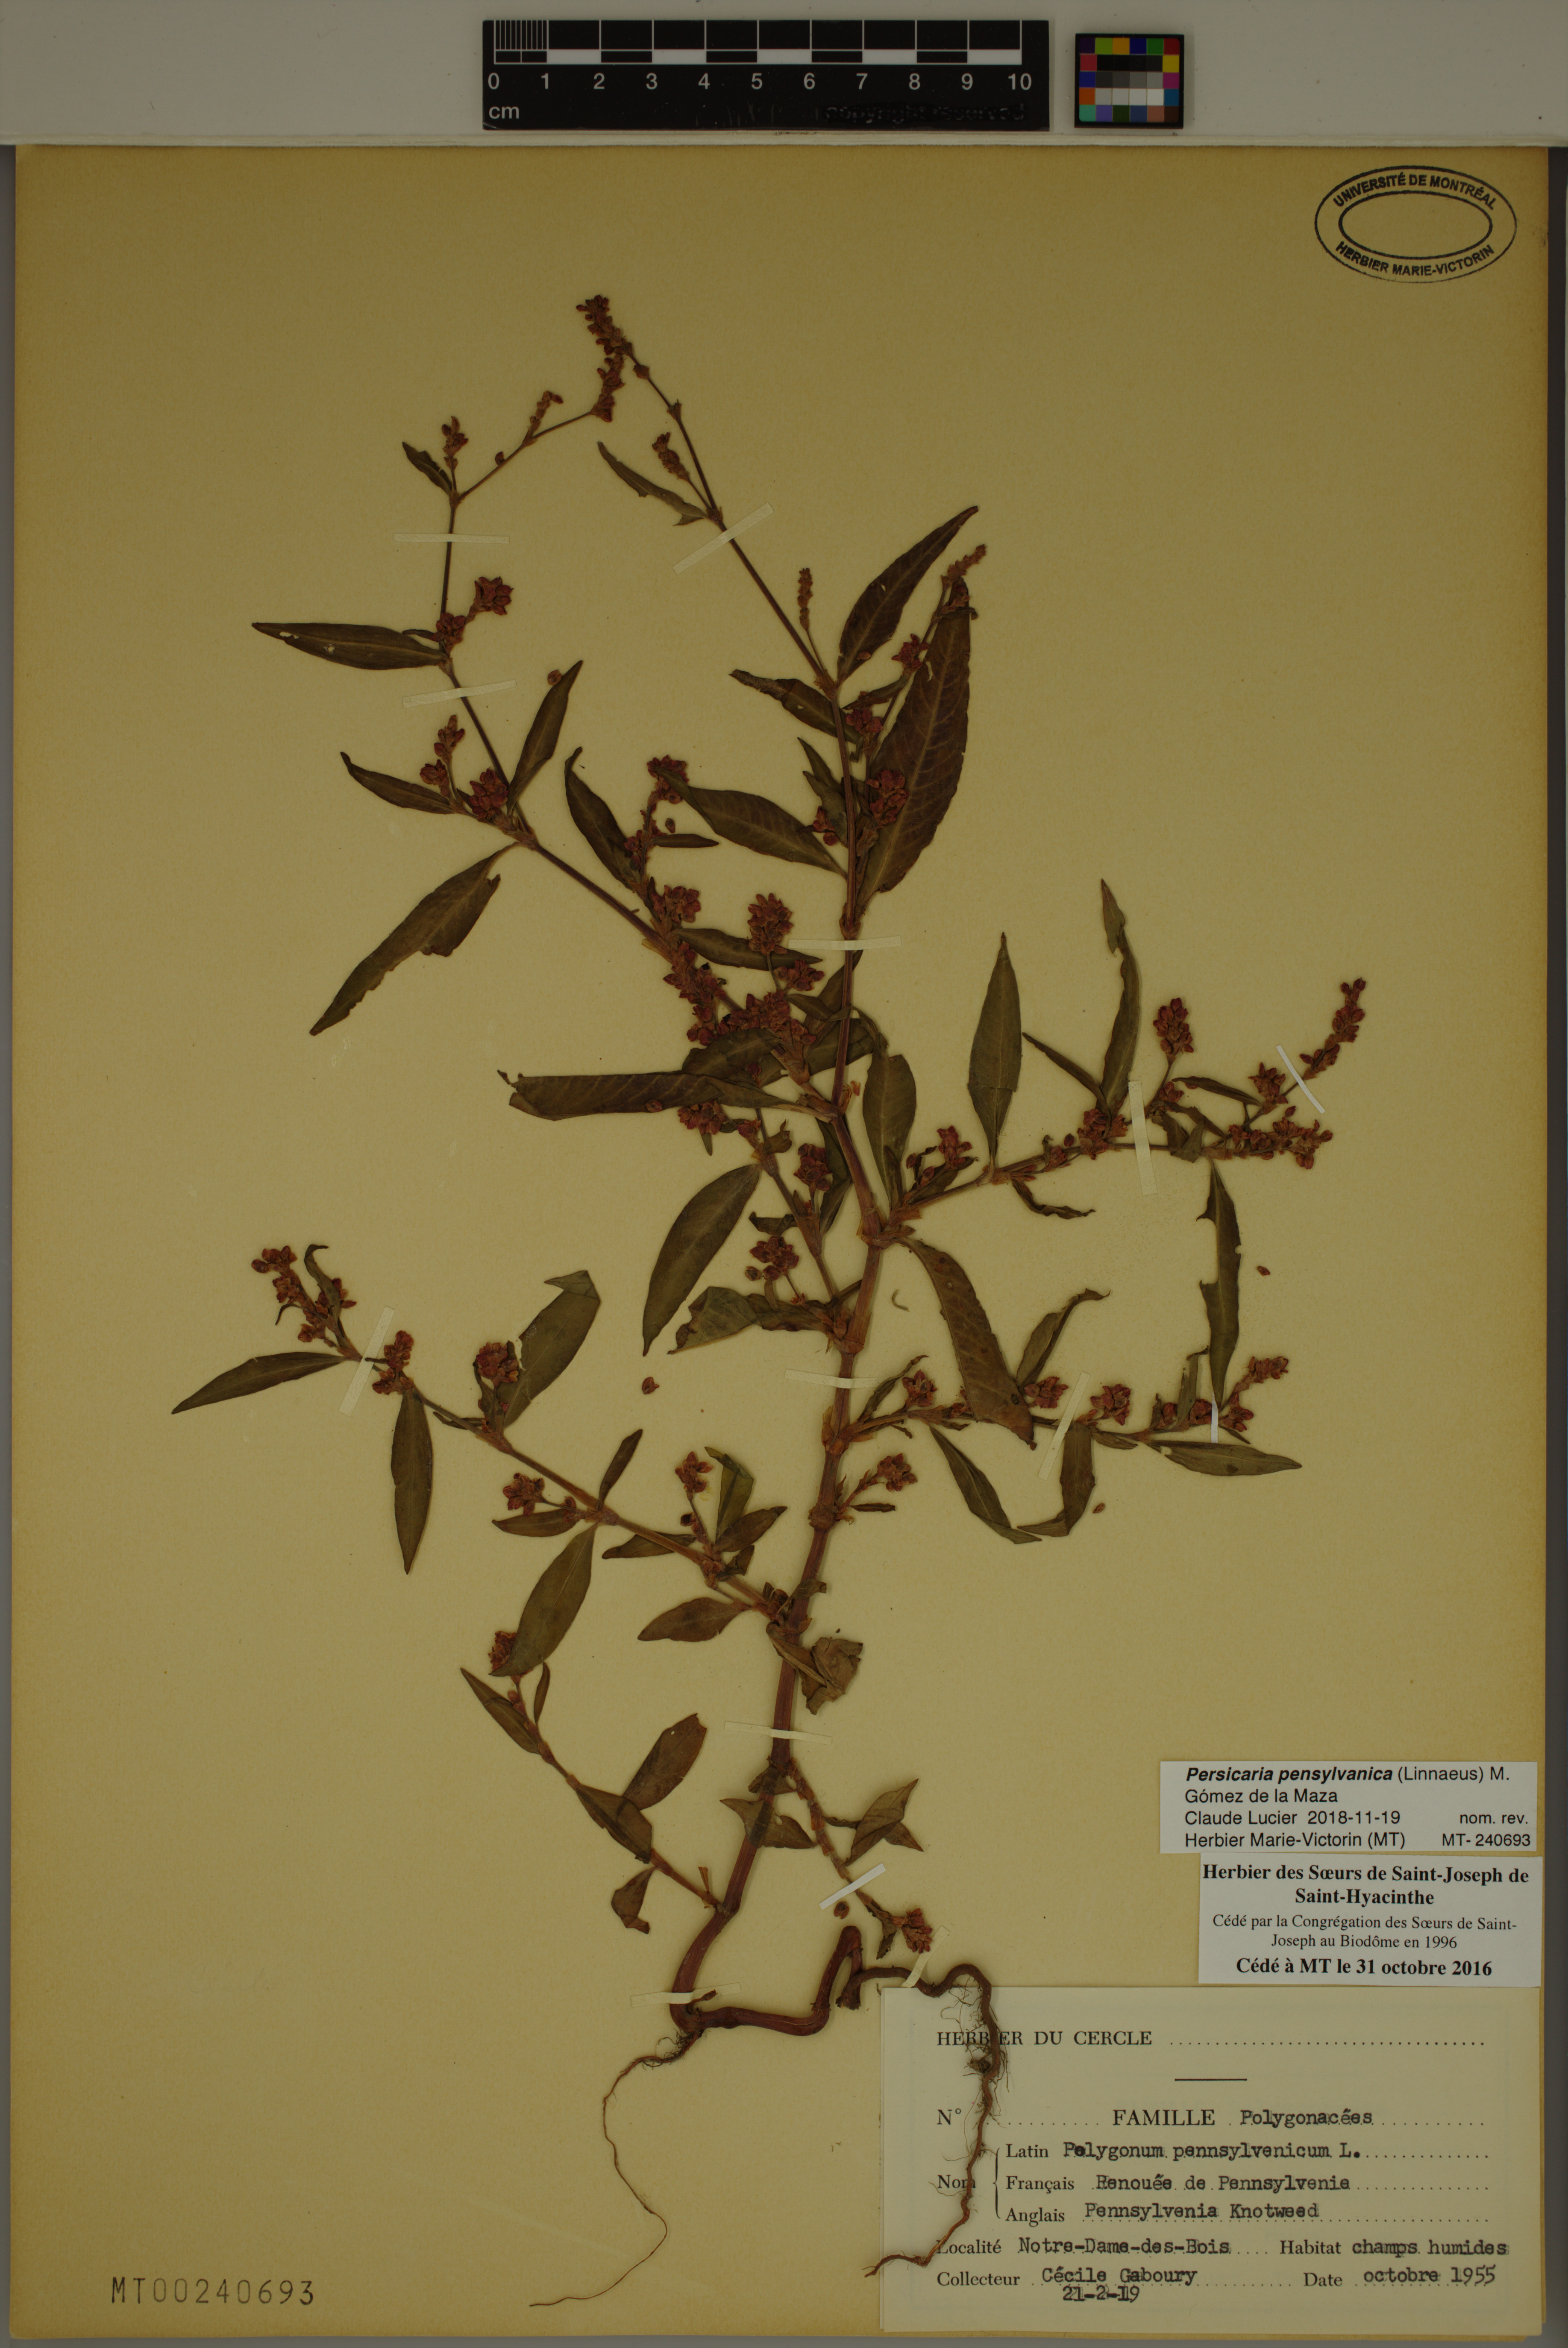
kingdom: Plantae
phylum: Tracheophyta
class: Magnoliopsida
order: Caryophyllales
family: Polygonaceae
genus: Persicaria
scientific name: Persicaria pensylvanica
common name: Pinkweed
